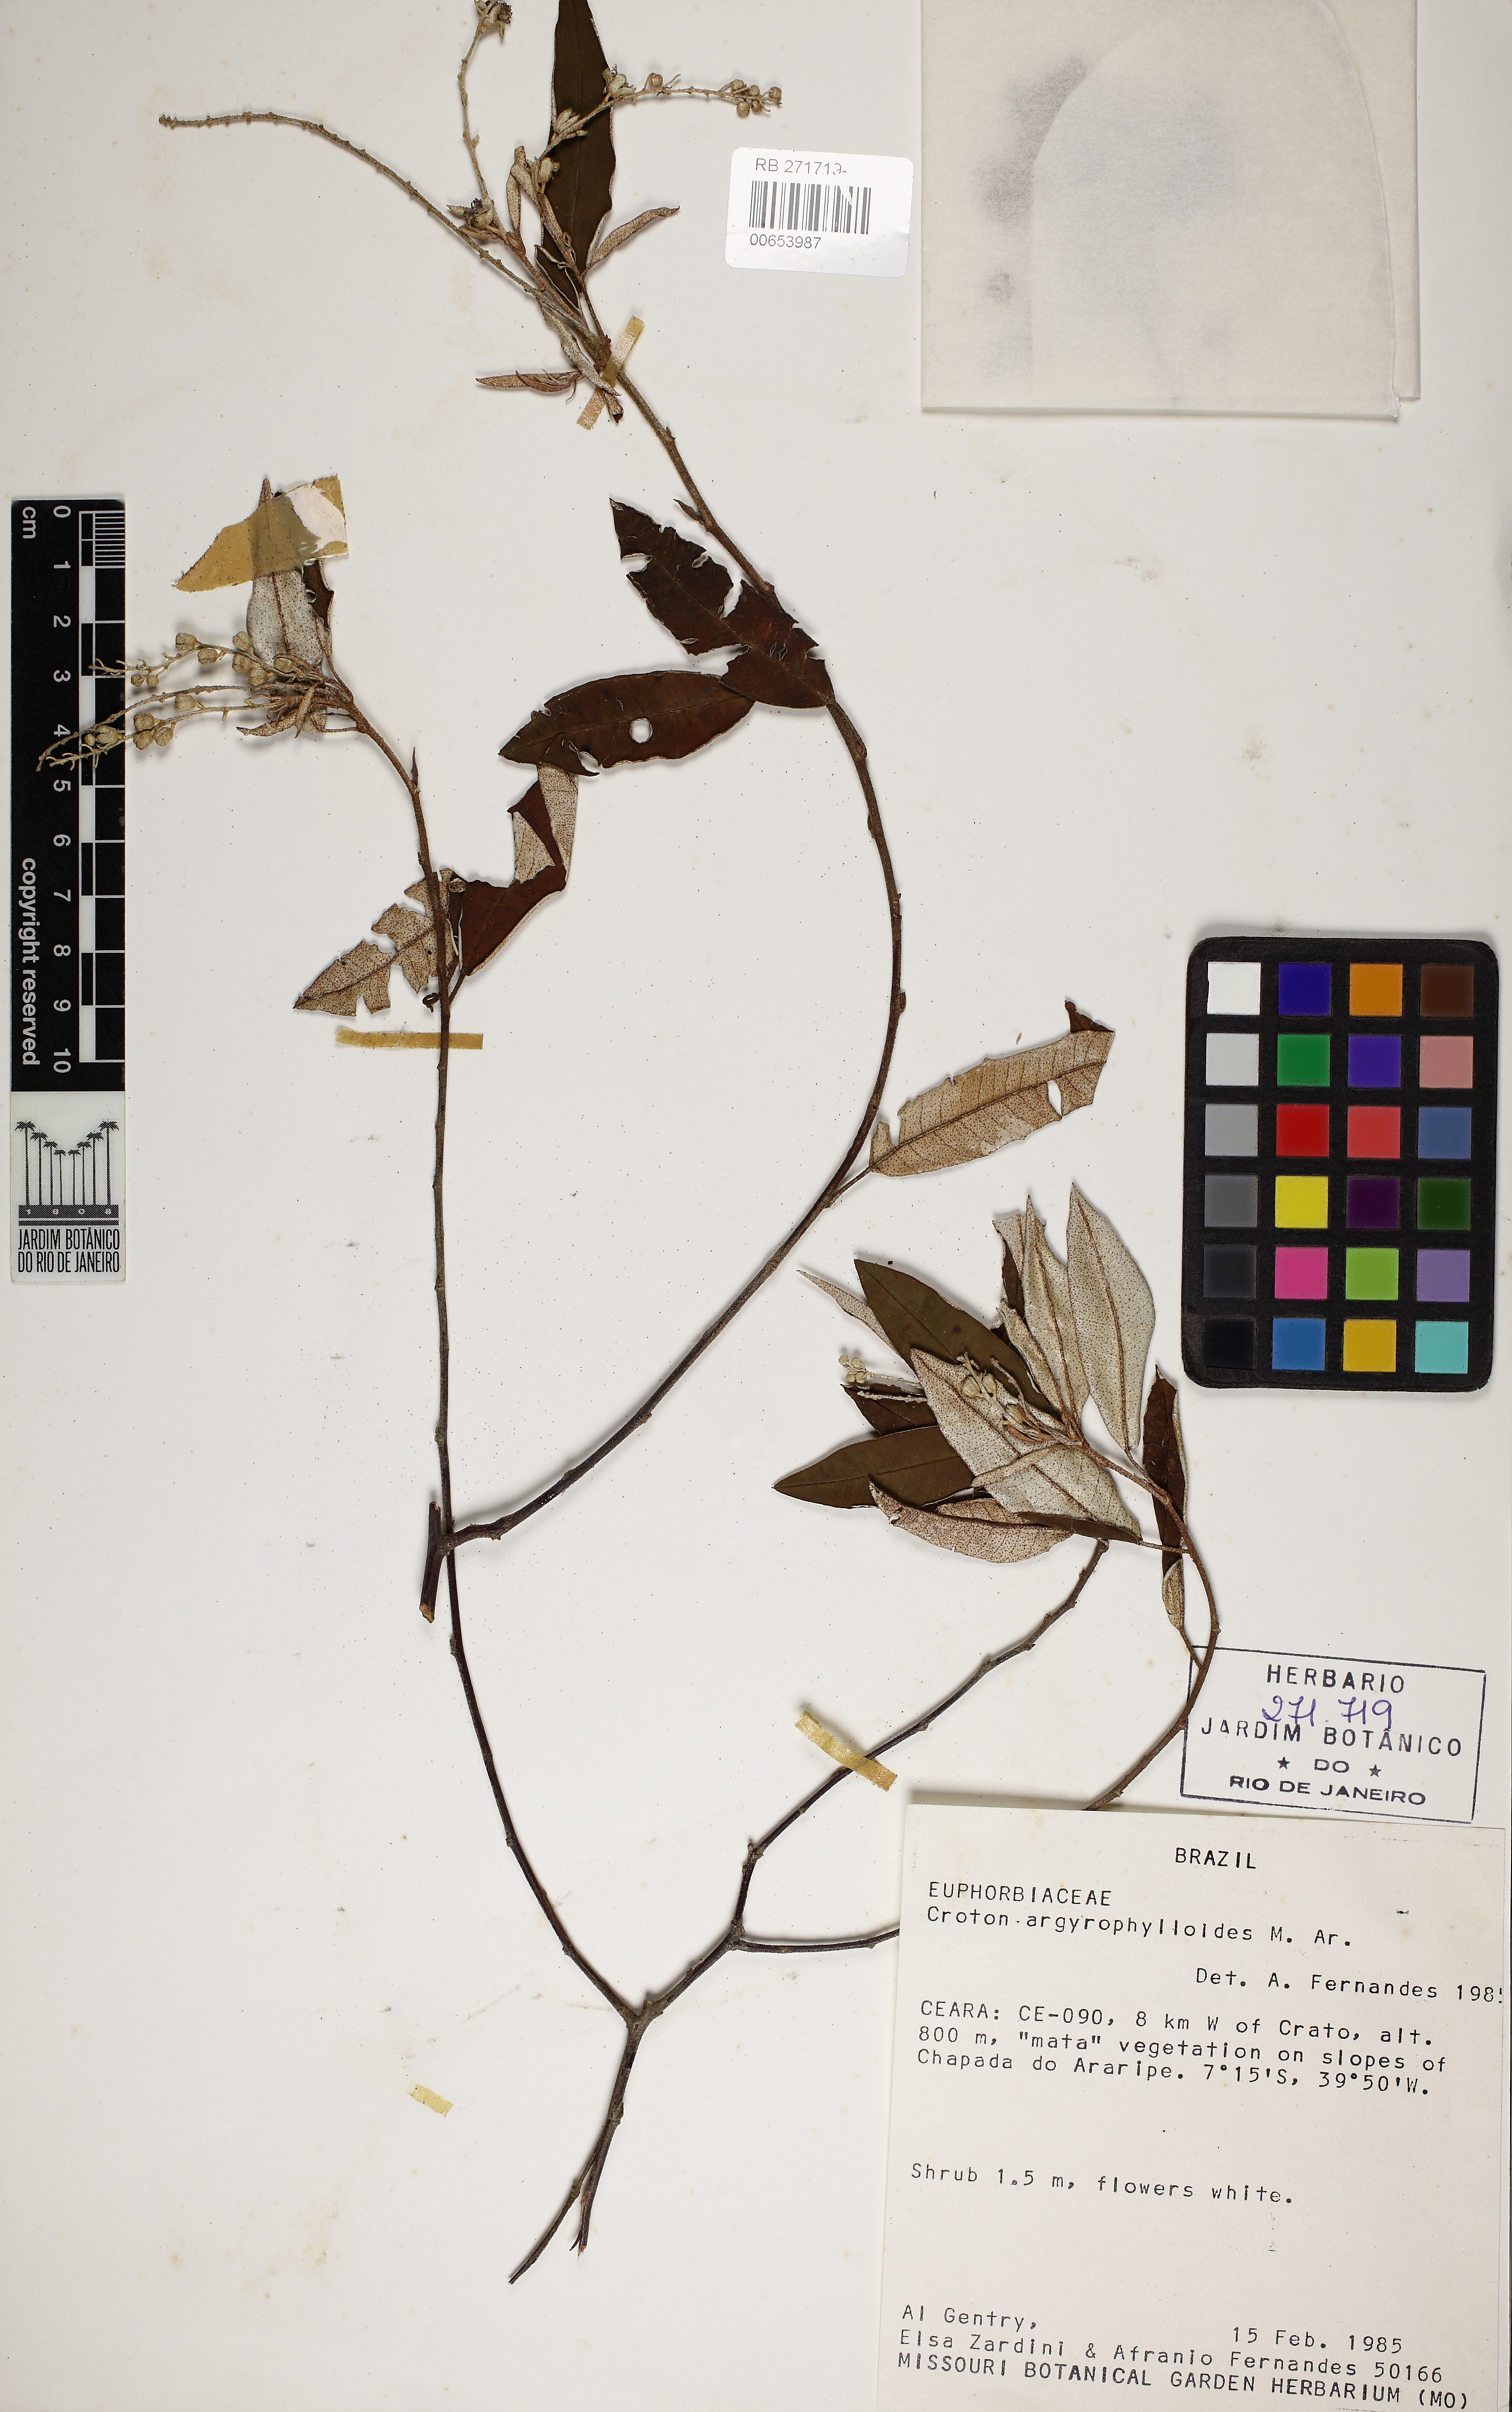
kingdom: Plantae
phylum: Tracheophyta
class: Magnoliopsida
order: Malpighiales
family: Euphorbiaceae
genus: Croton
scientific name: Croton tricolor
